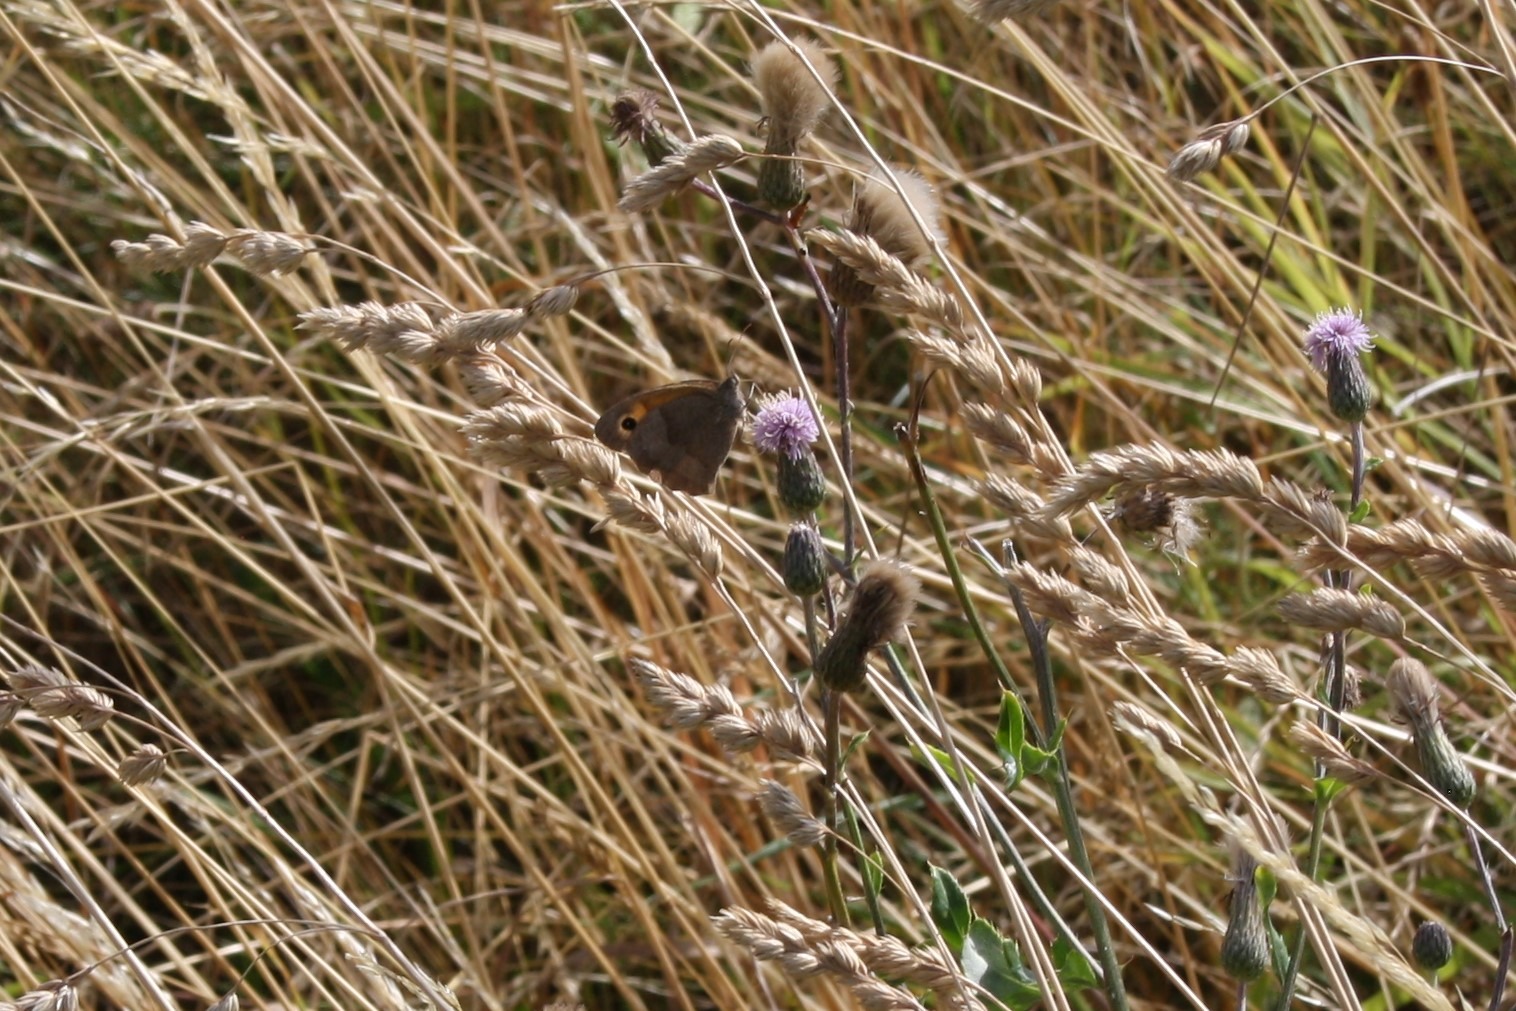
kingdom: Animalia
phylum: Arthropoda
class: Insecta
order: Lepidoptera
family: Nymphalidae
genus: Maniola
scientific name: Maniola jurtina
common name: Græsrandøje
